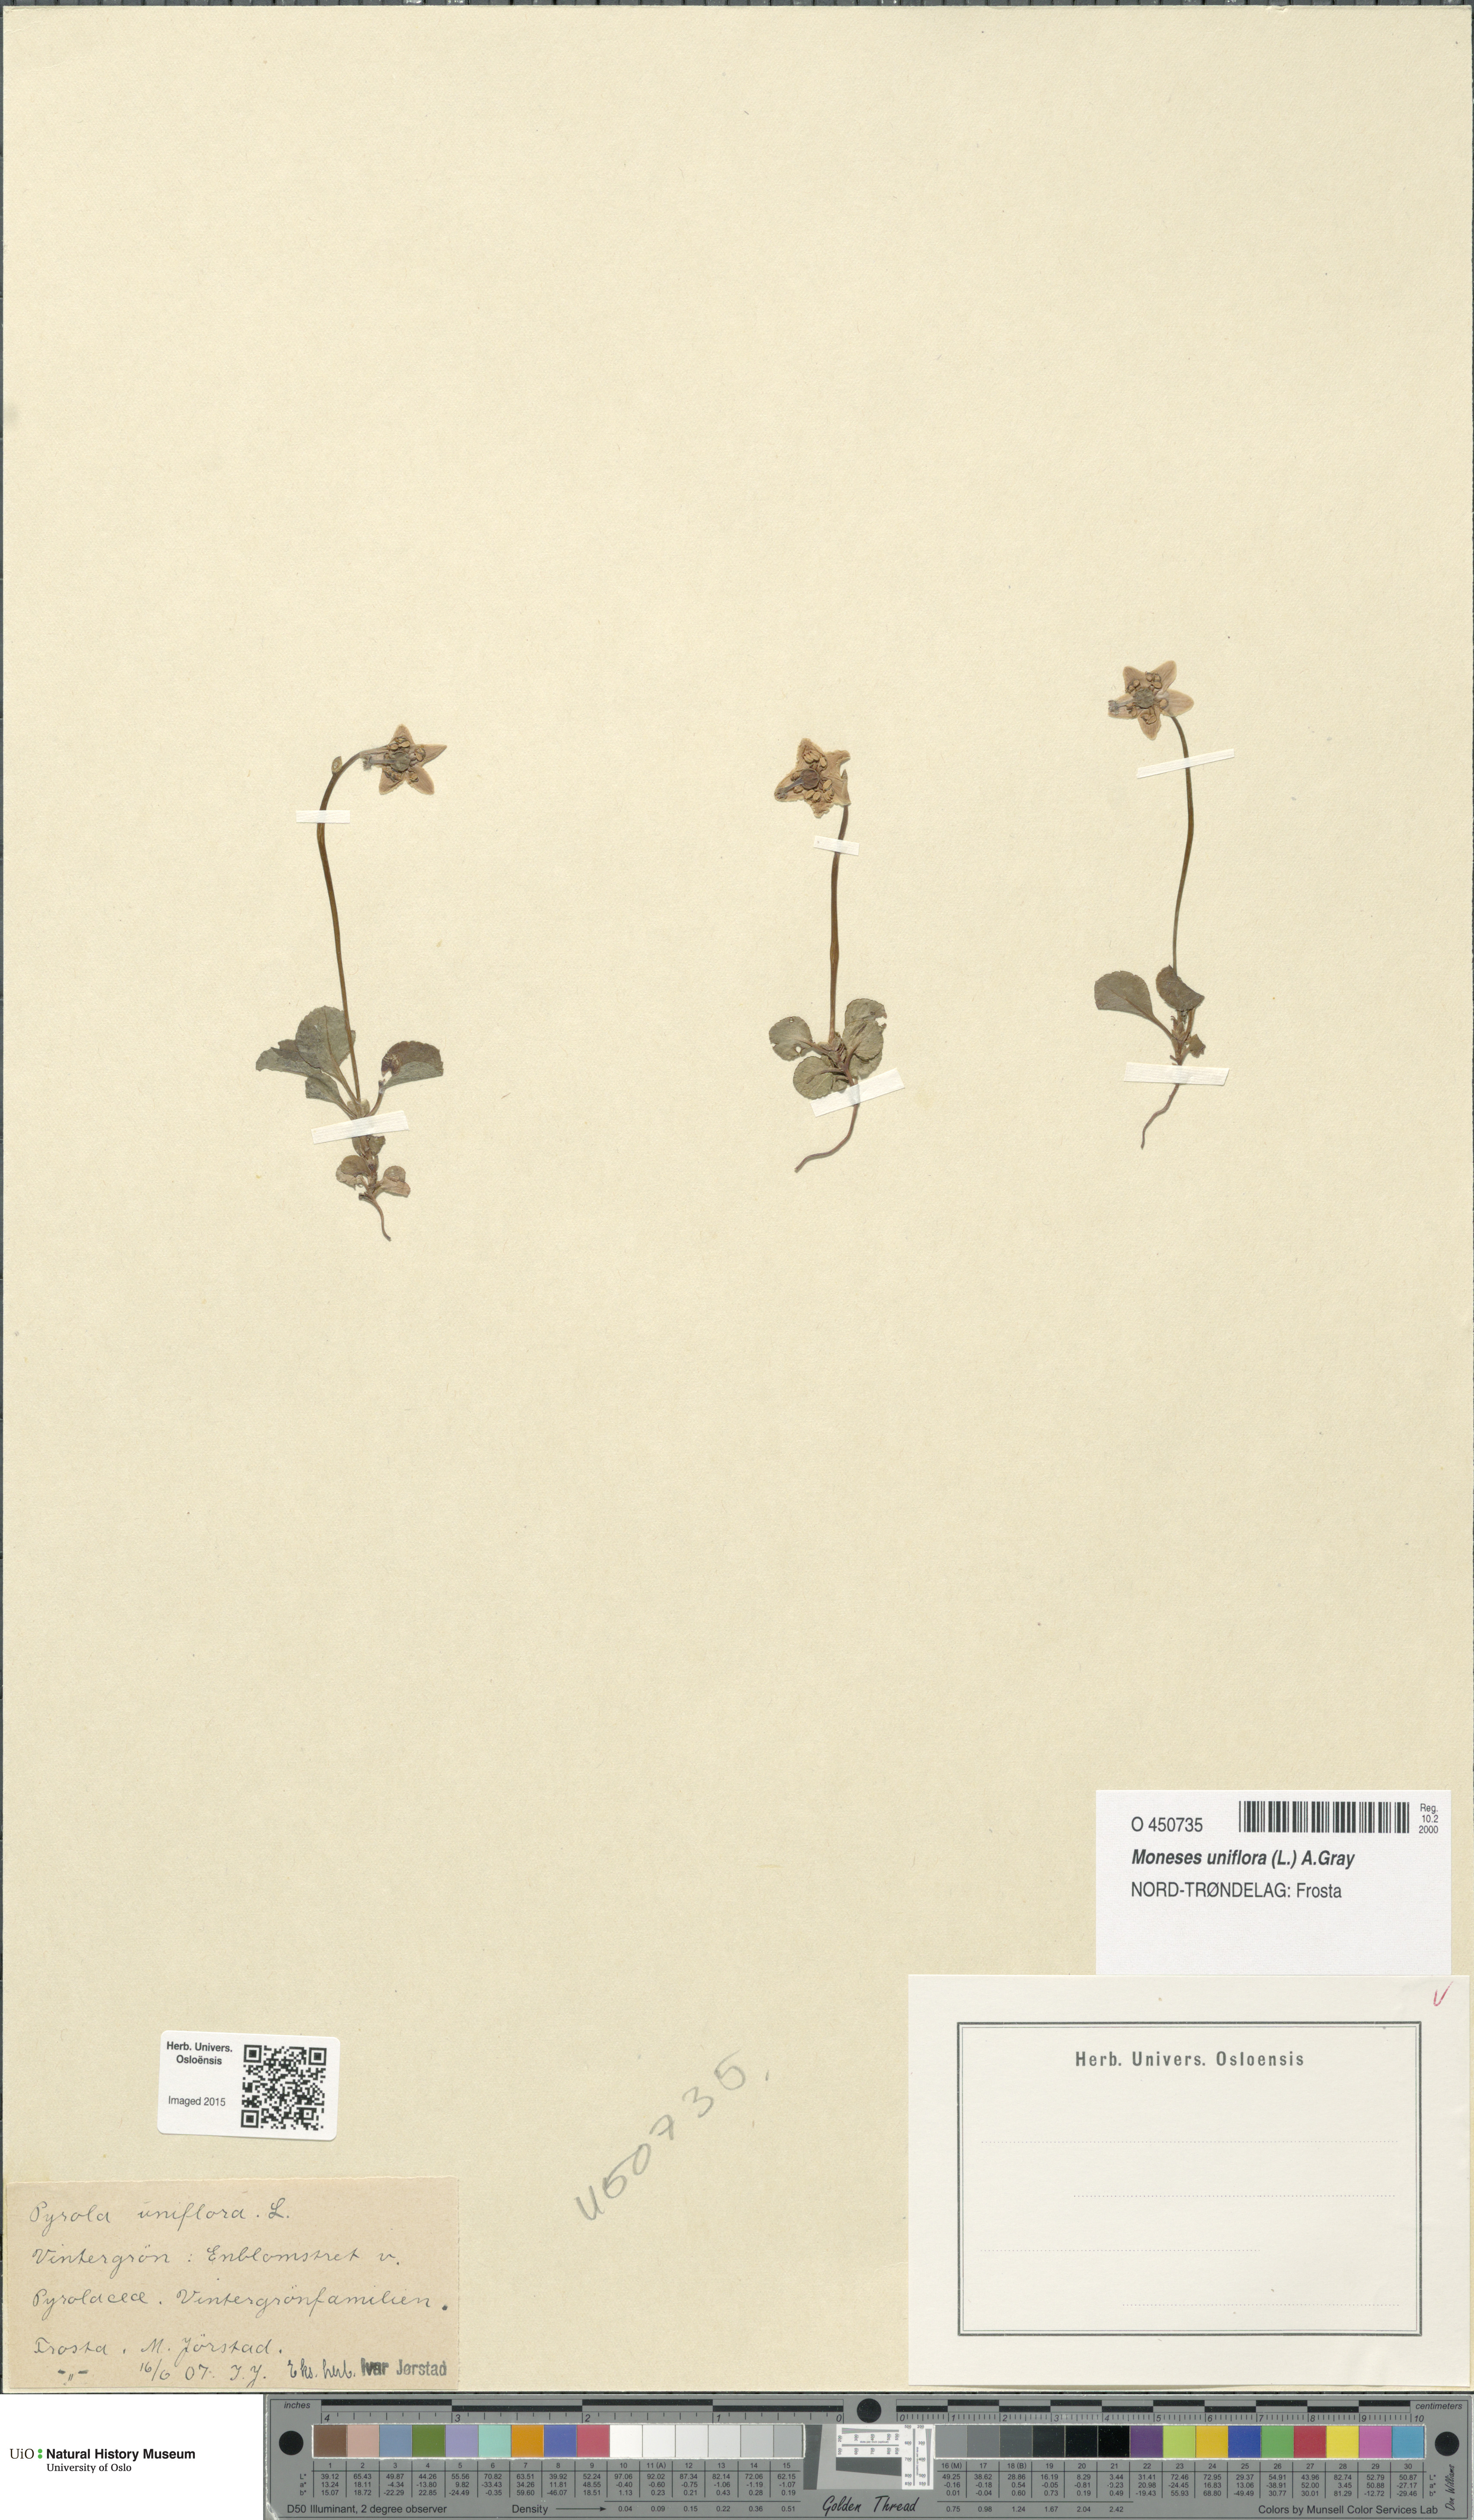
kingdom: Plantae
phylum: Tracheophyta
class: Magnoliopsida
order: Ericales
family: Ericaceae
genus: Moneses
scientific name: Moneses uniflora
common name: One-flowered wintergreen
